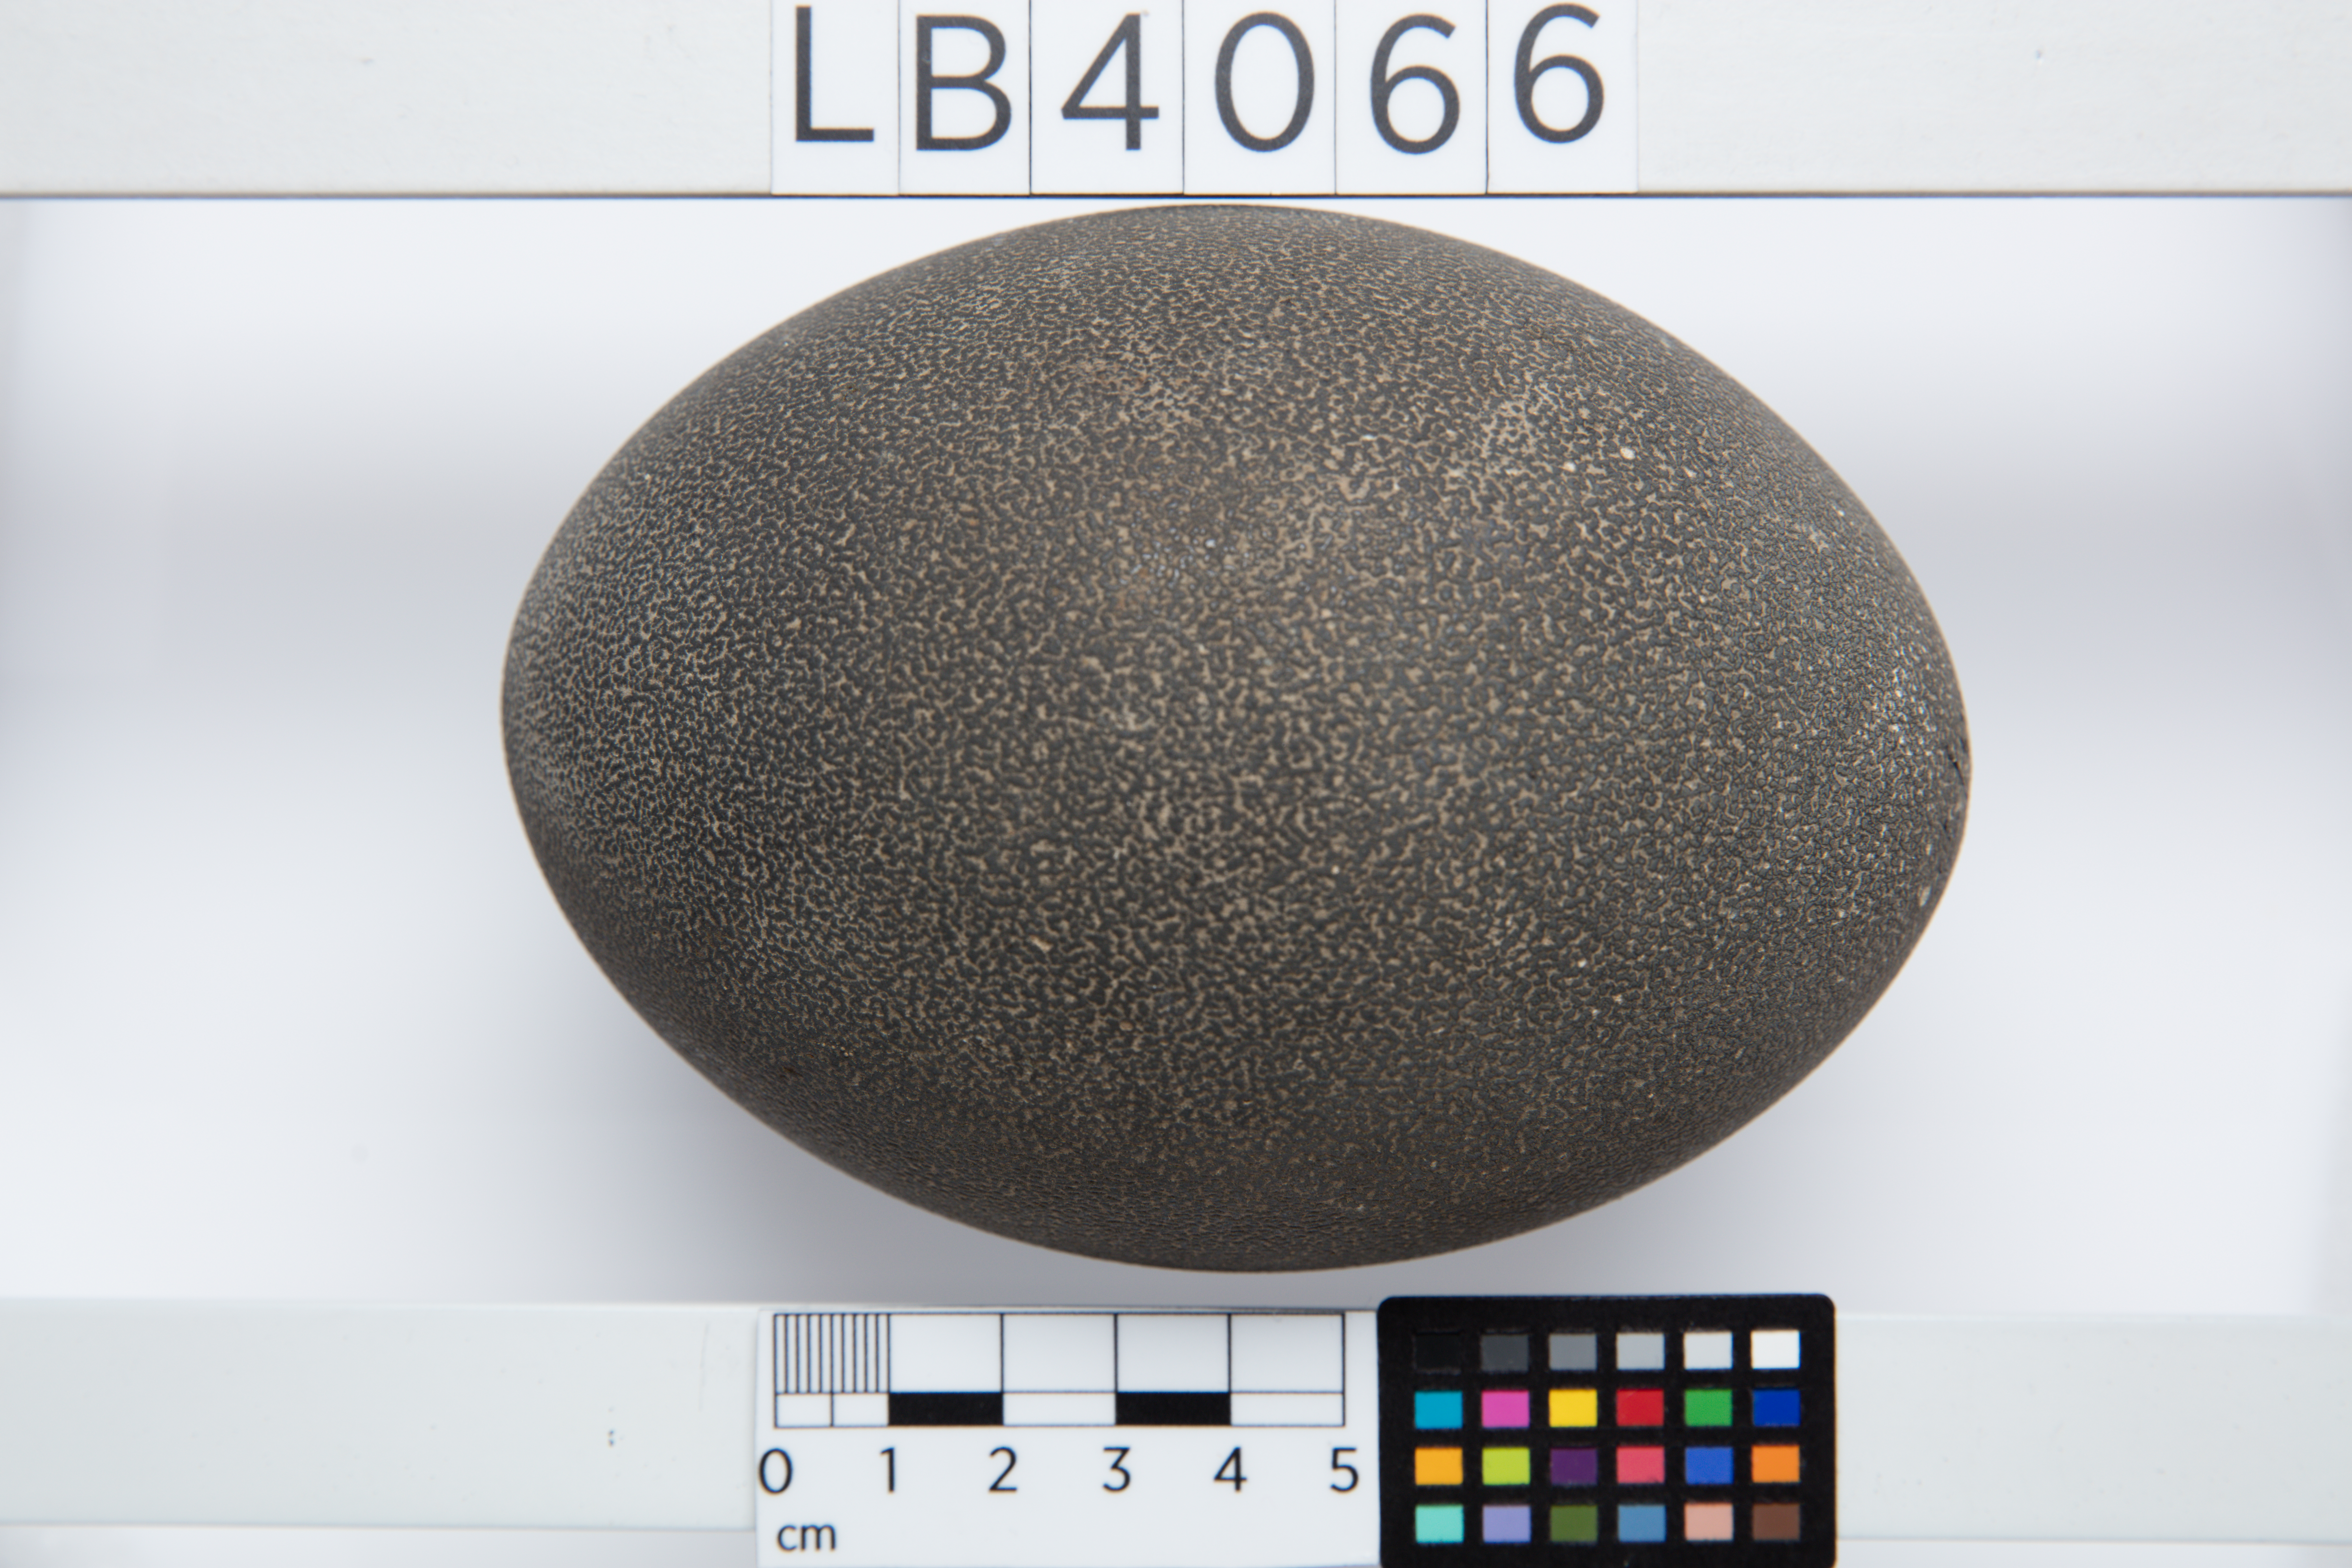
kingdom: Animalia
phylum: Chordata
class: Aves
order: Casuariiformes
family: Dromaiidae
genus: Dromaius
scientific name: Dromaius novaehollandiae
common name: Emu
